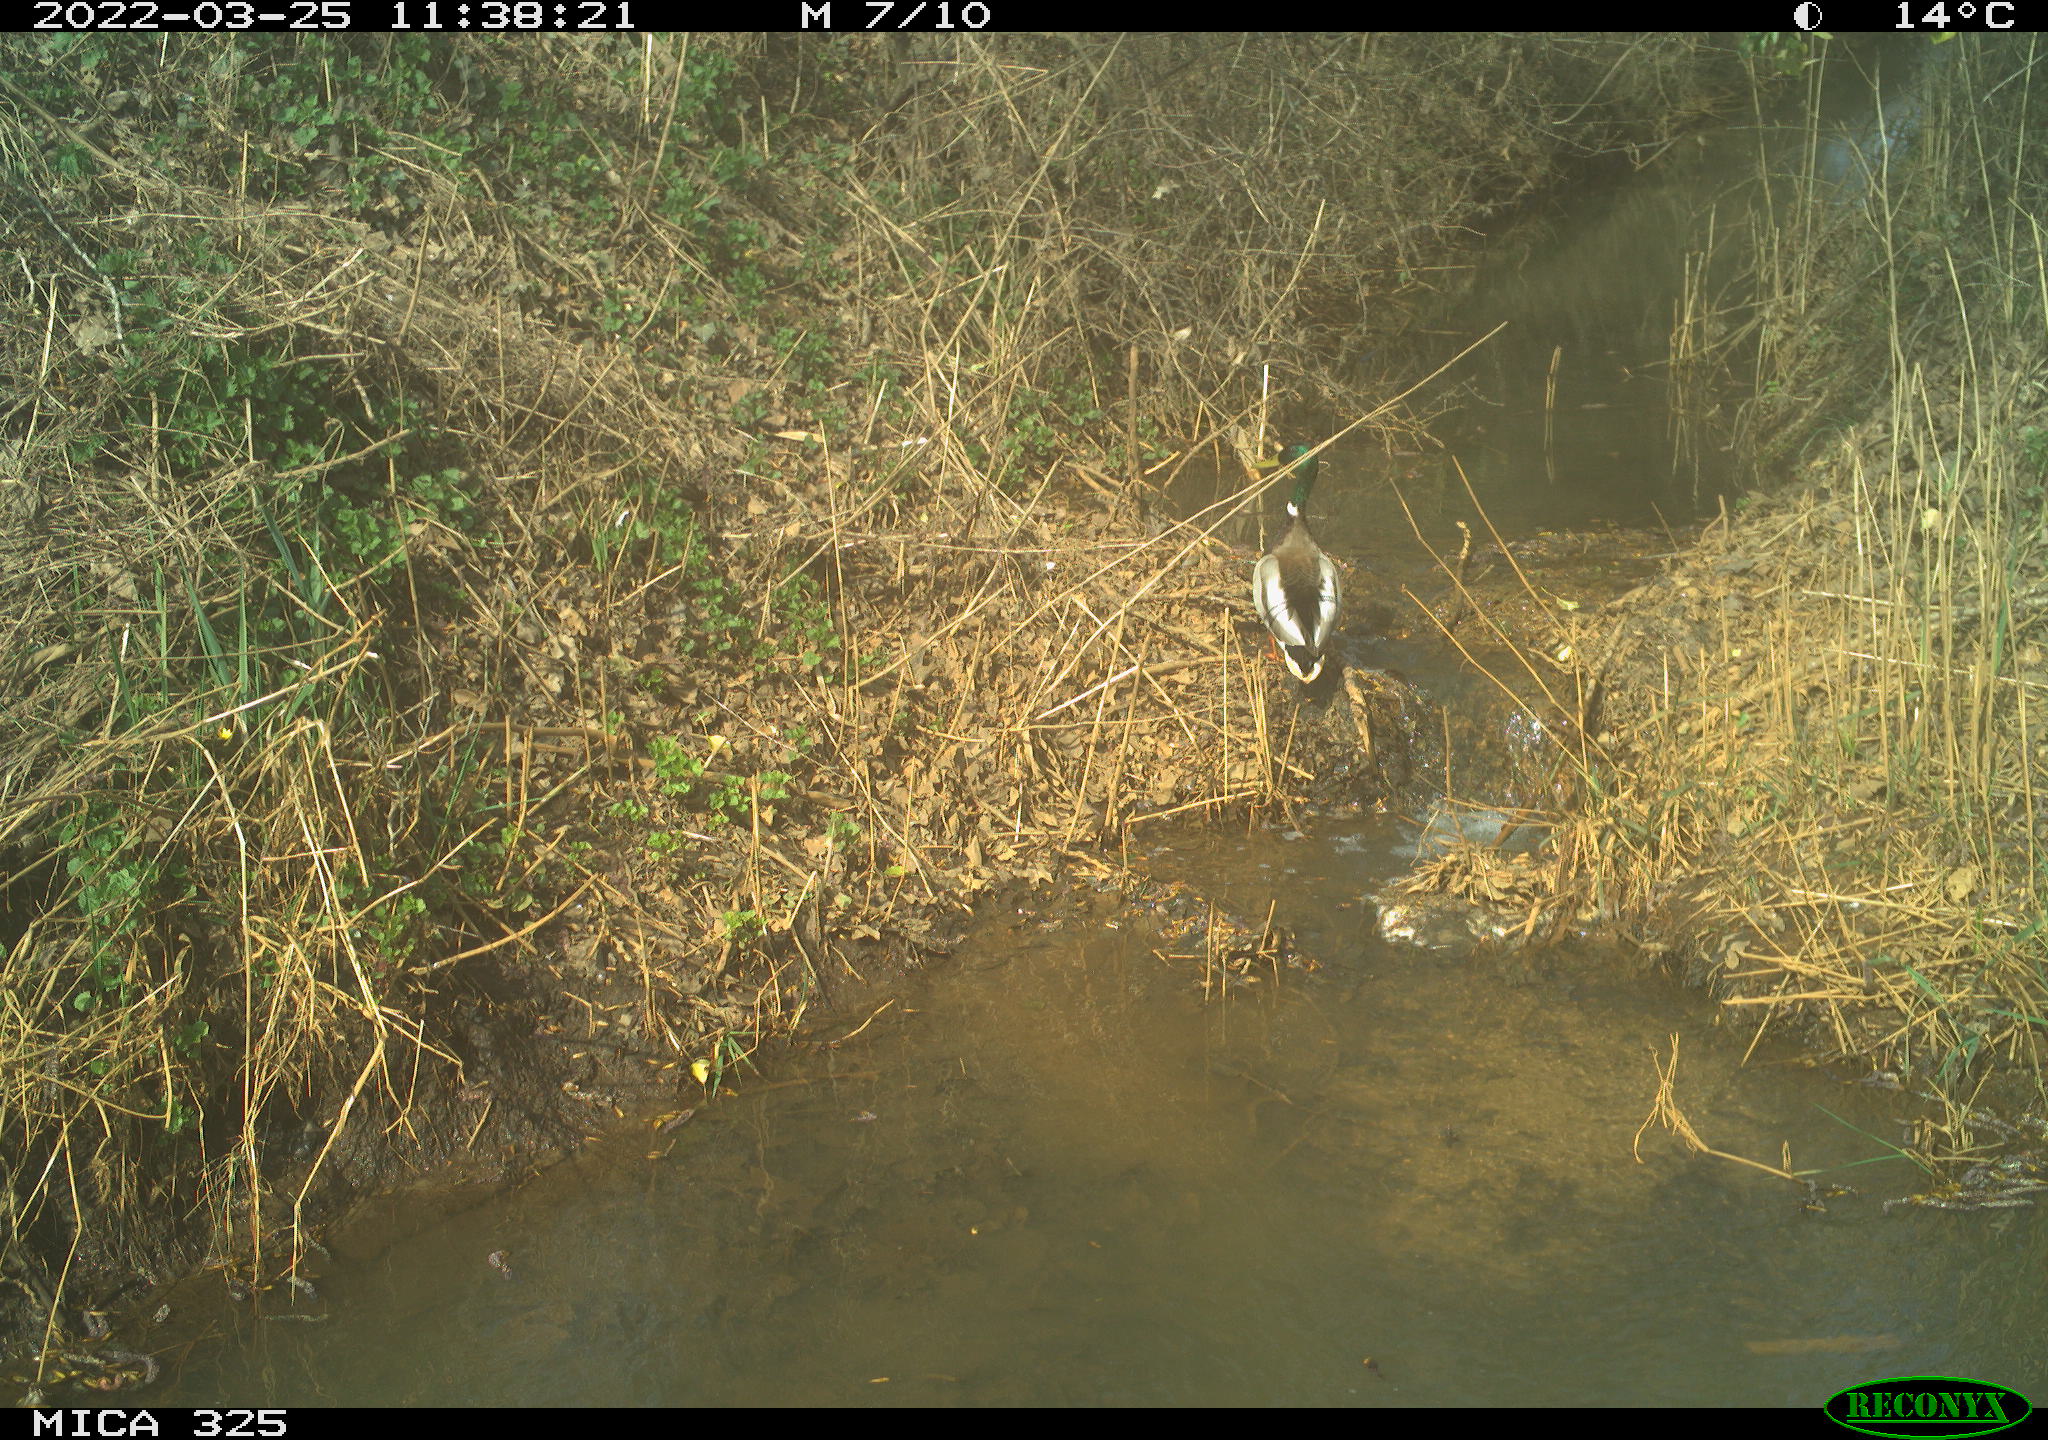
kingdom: Animalia
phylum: Chordata
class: Aves
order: Anseriformes
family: Anatidae
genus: Anas
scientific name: Anas platyrhynchos
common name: Mallard
